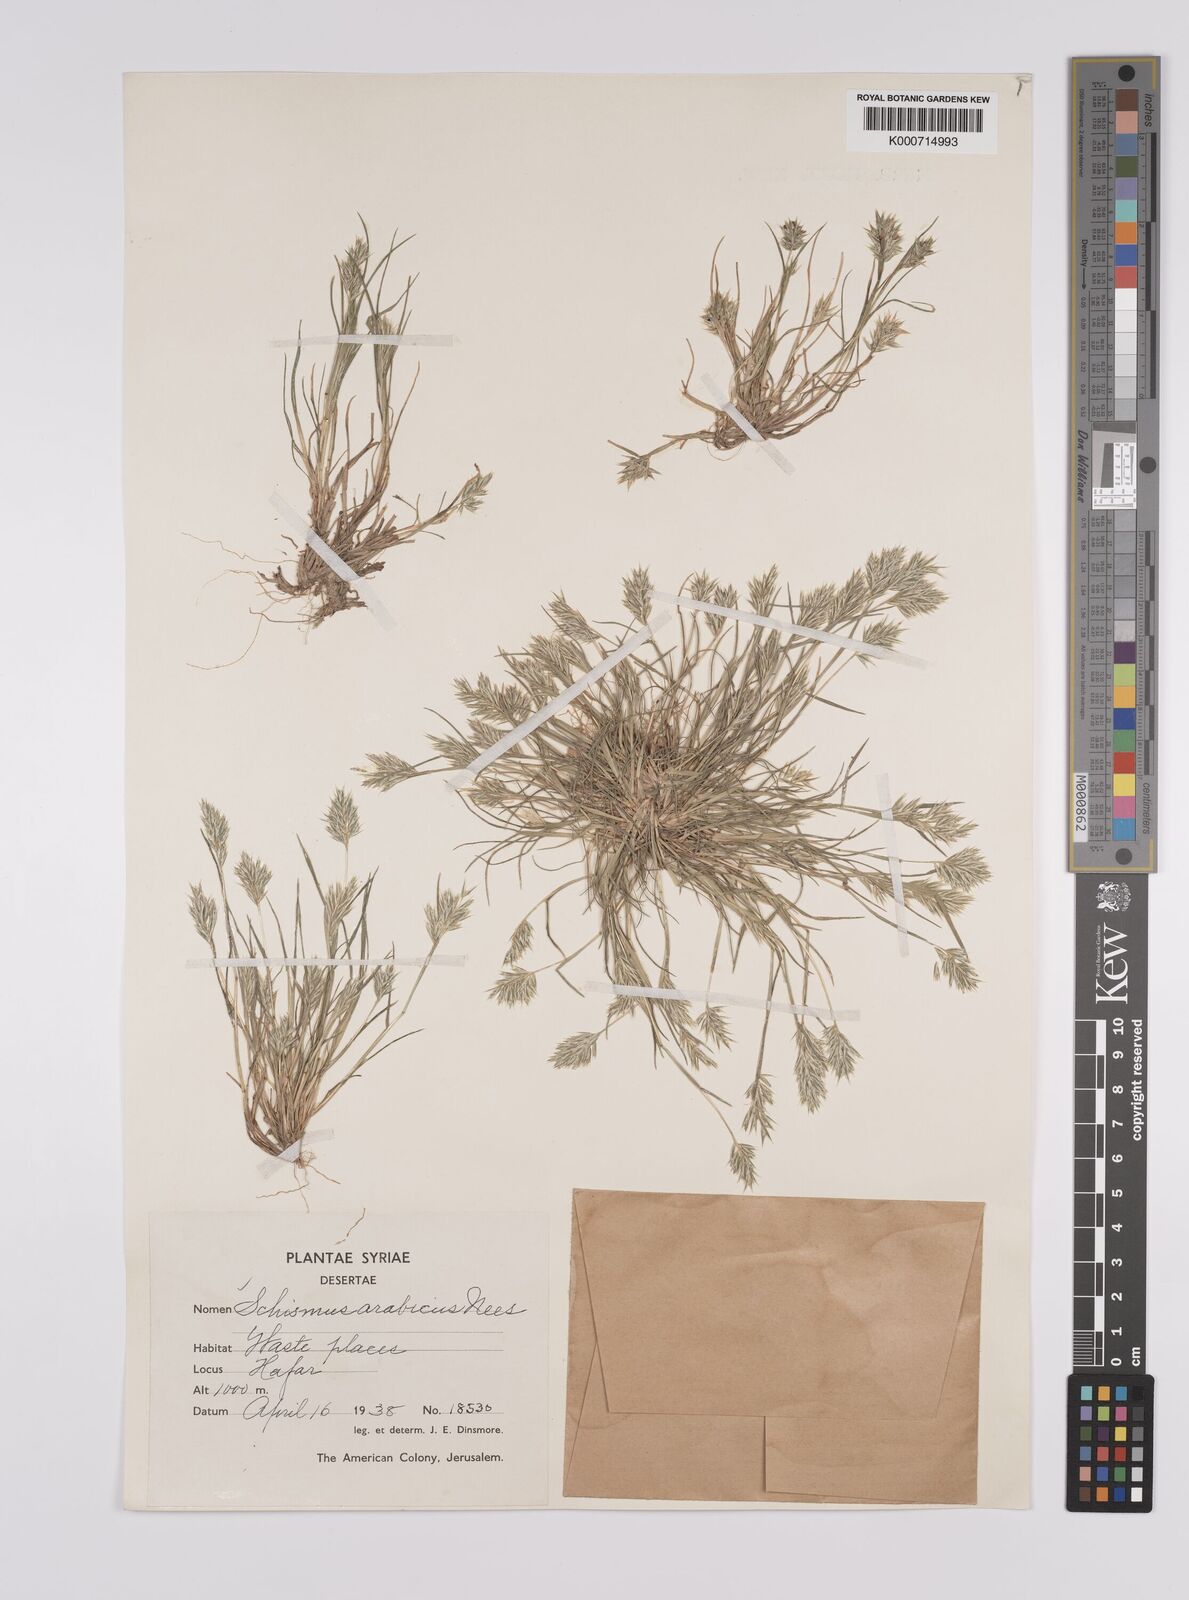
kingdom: Plantae
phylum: Tracheophyta
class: Liliopsida
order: Poales
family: Poaceae
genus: Schismus
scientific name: Schismus arabicus
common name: Arabian schismus
